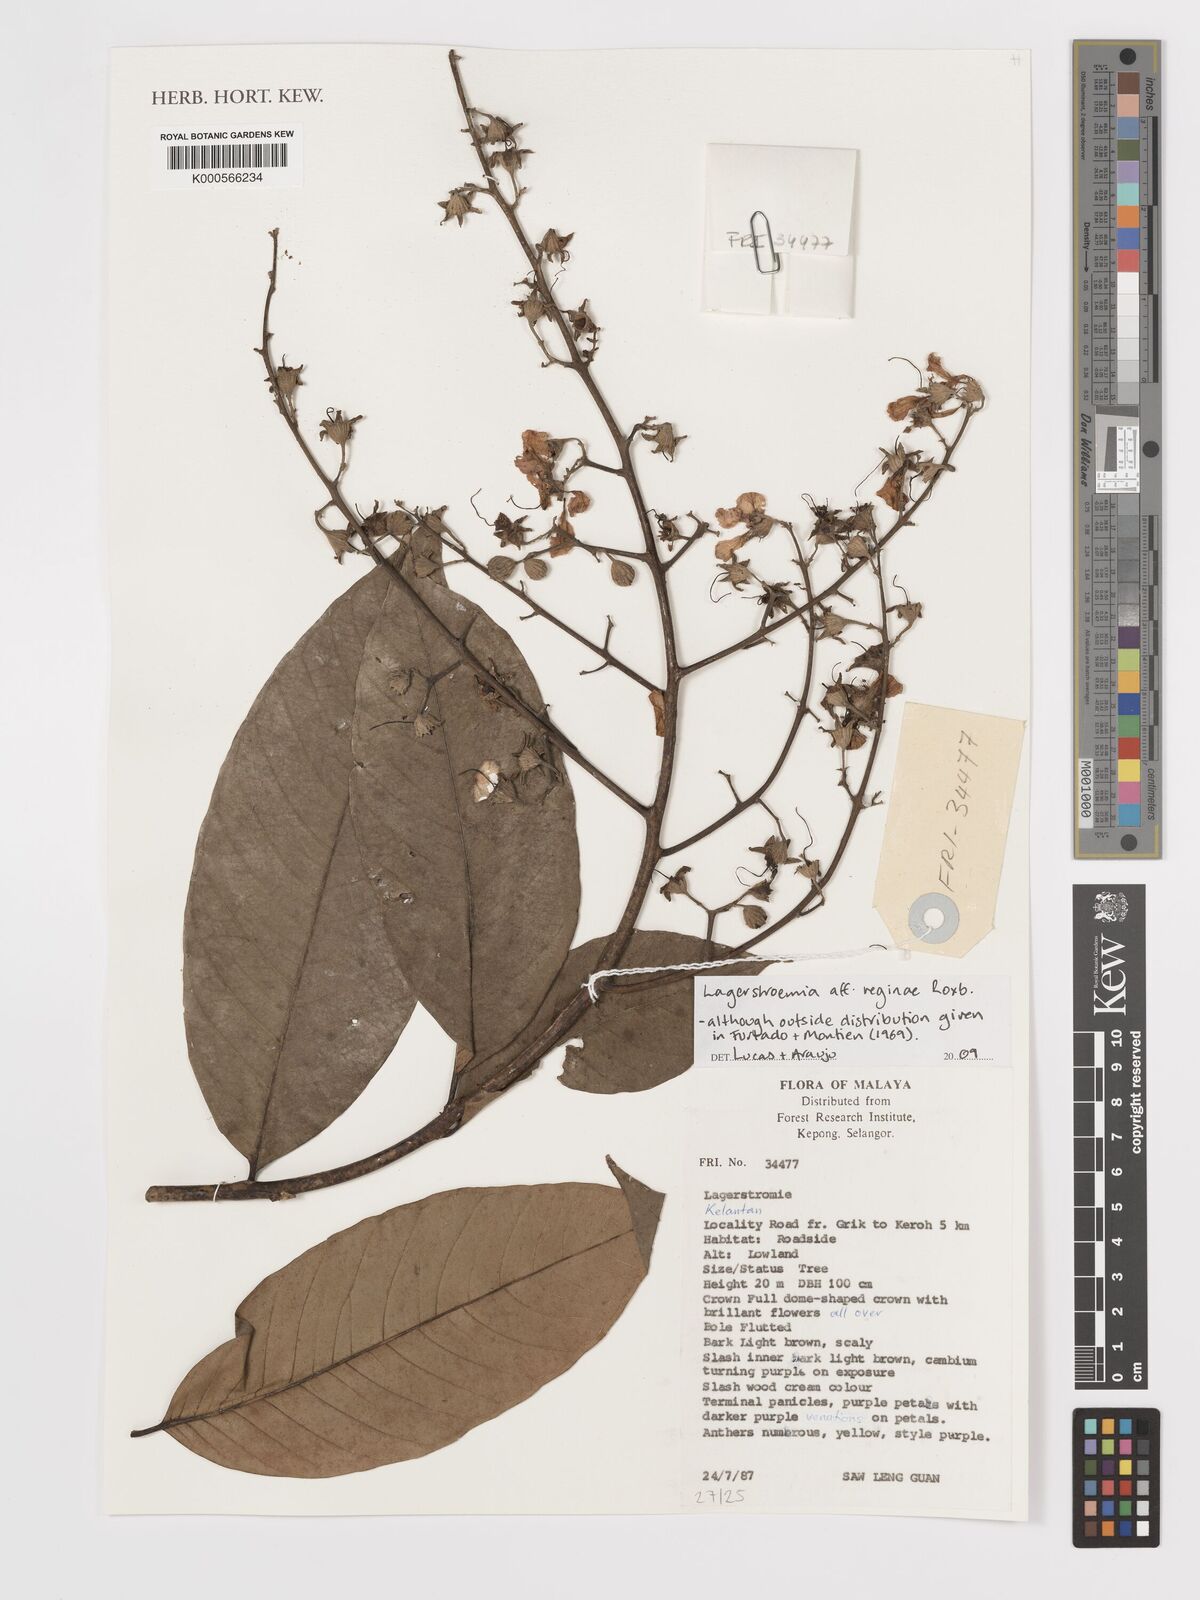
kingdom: Plantae
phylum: Tracheophyta
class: Magnoliopsida
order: Myrtales
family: Lythraceae
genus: Lagerstroemia
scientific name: Lagerstroemia speciosa
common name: Queen's crape-myrtle
